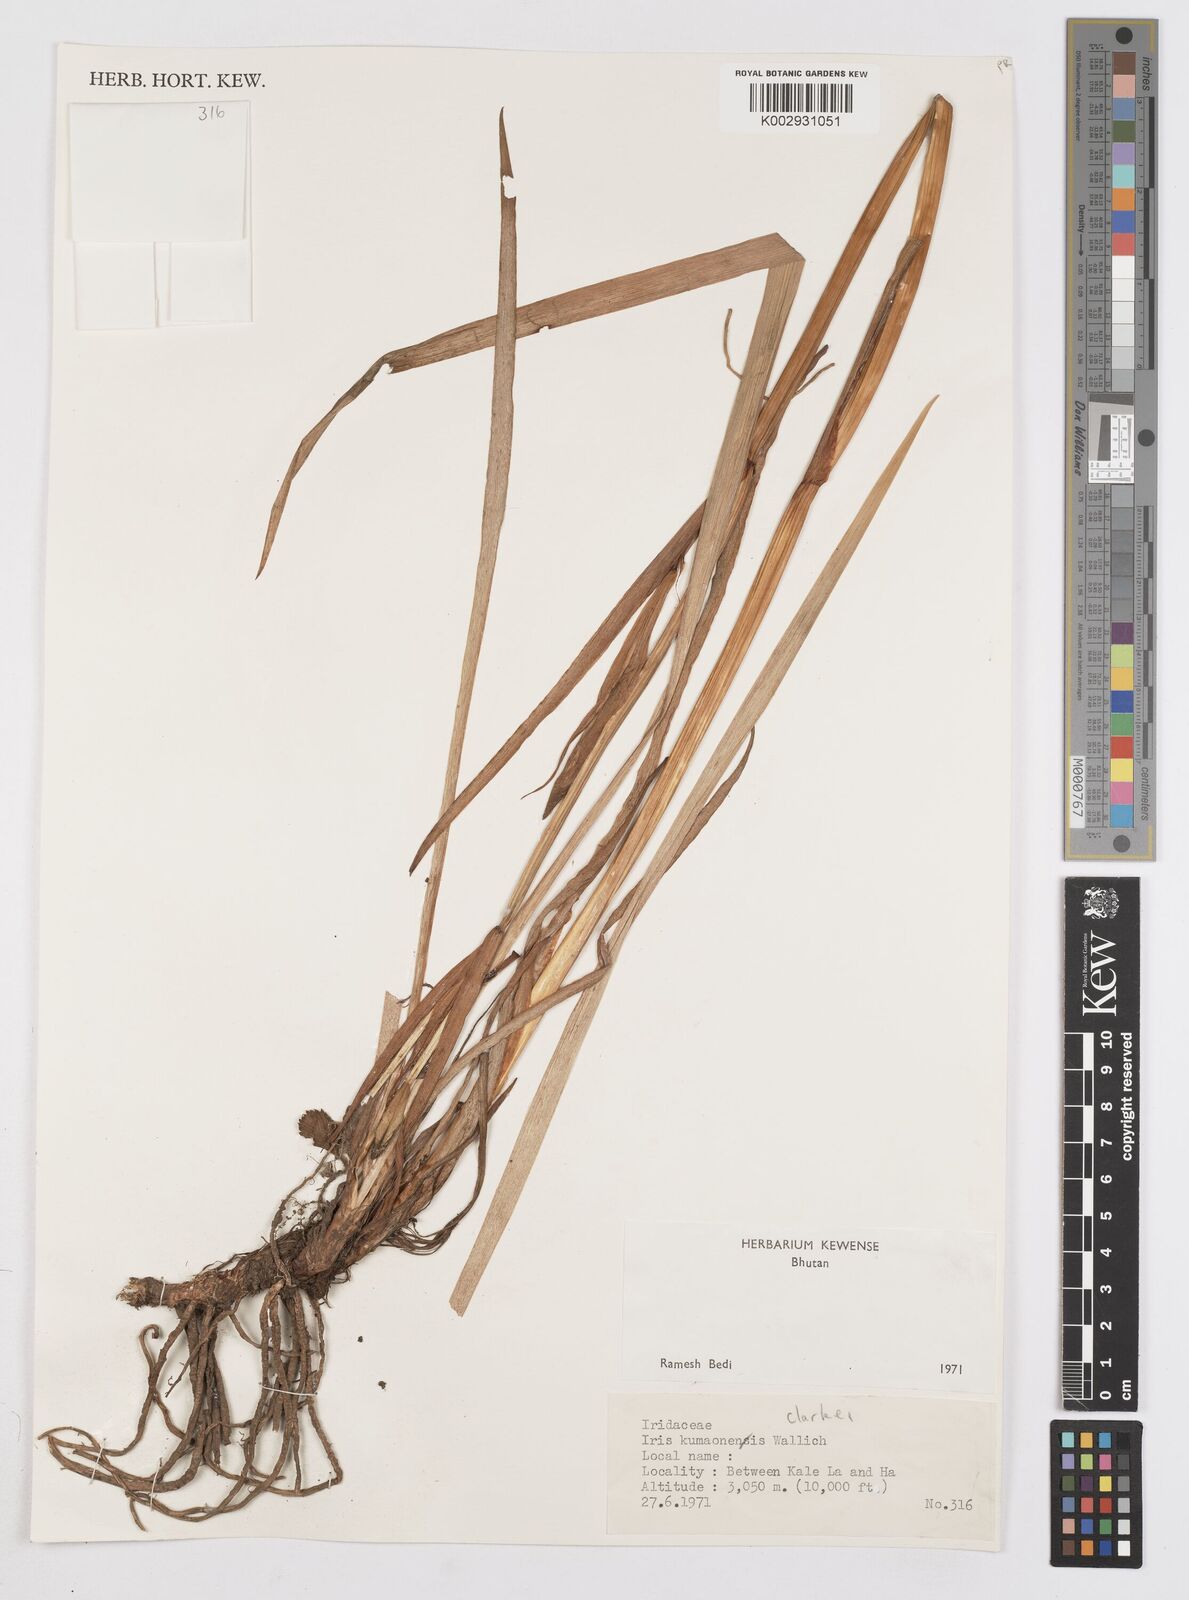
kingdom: Plantae
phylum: Tracheophyta
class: Liliopsida
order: Asparagales
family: Iridaceae
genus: Iris
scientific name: Iris clarkei
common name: Tibet iris
